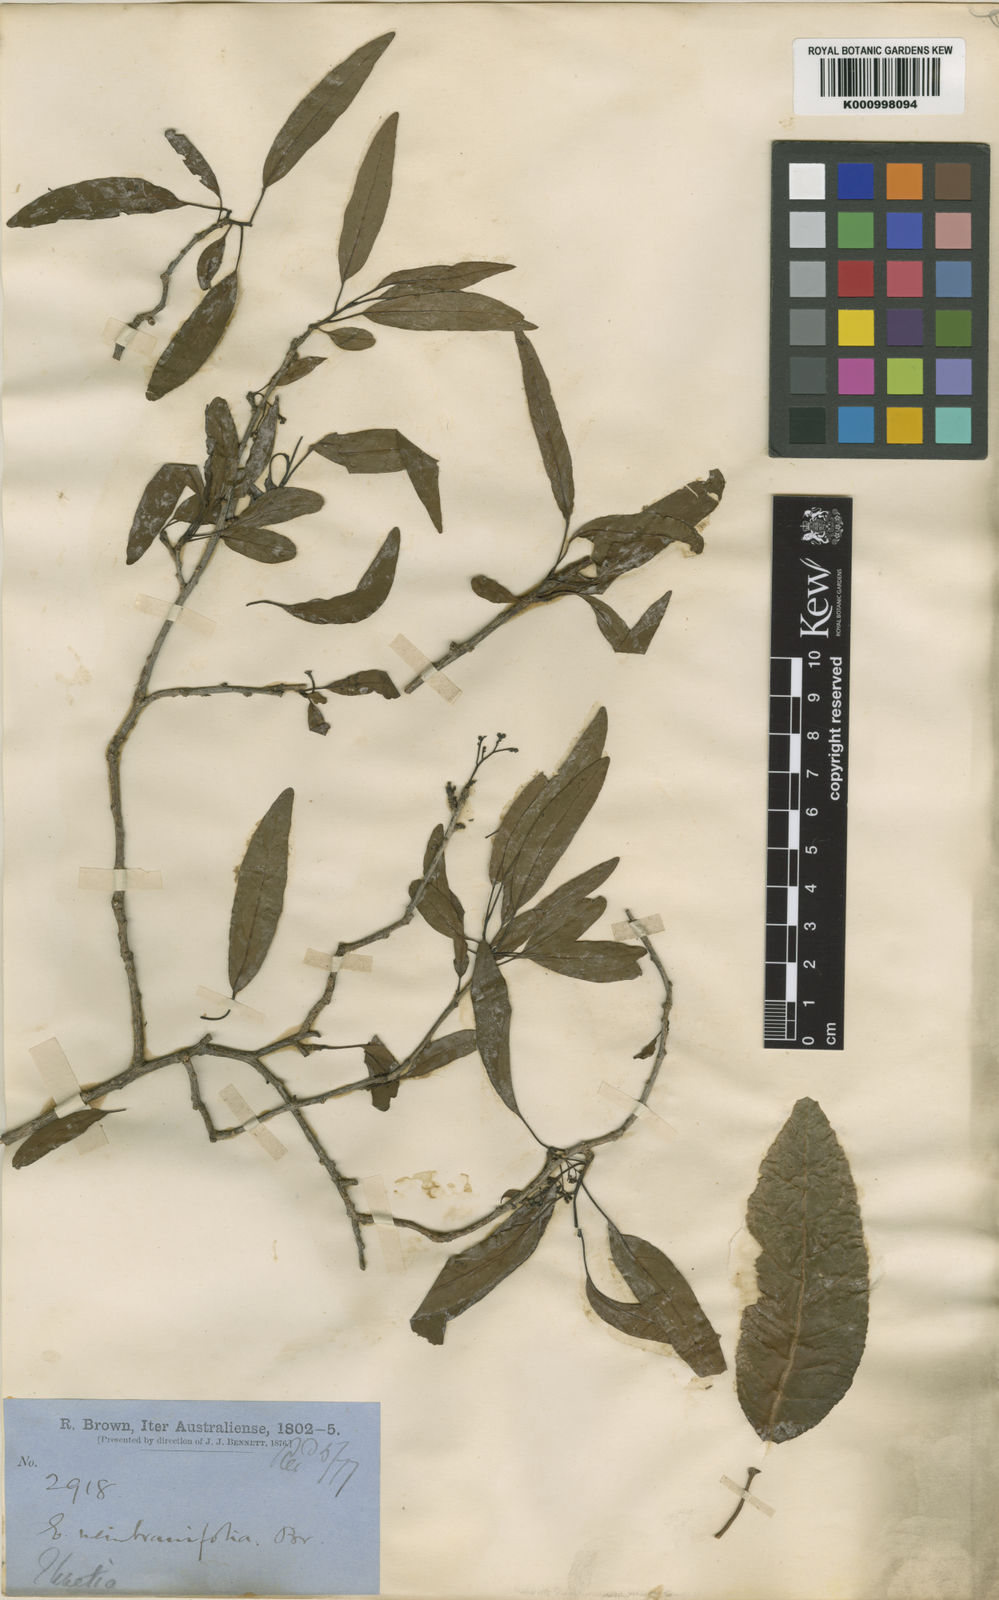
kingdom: Plantae
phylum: Tracheophyta
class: Magnoliopsida
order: Boraginales
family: Ehretiaceae
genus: Ehretia
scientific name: Ehretia saligna
